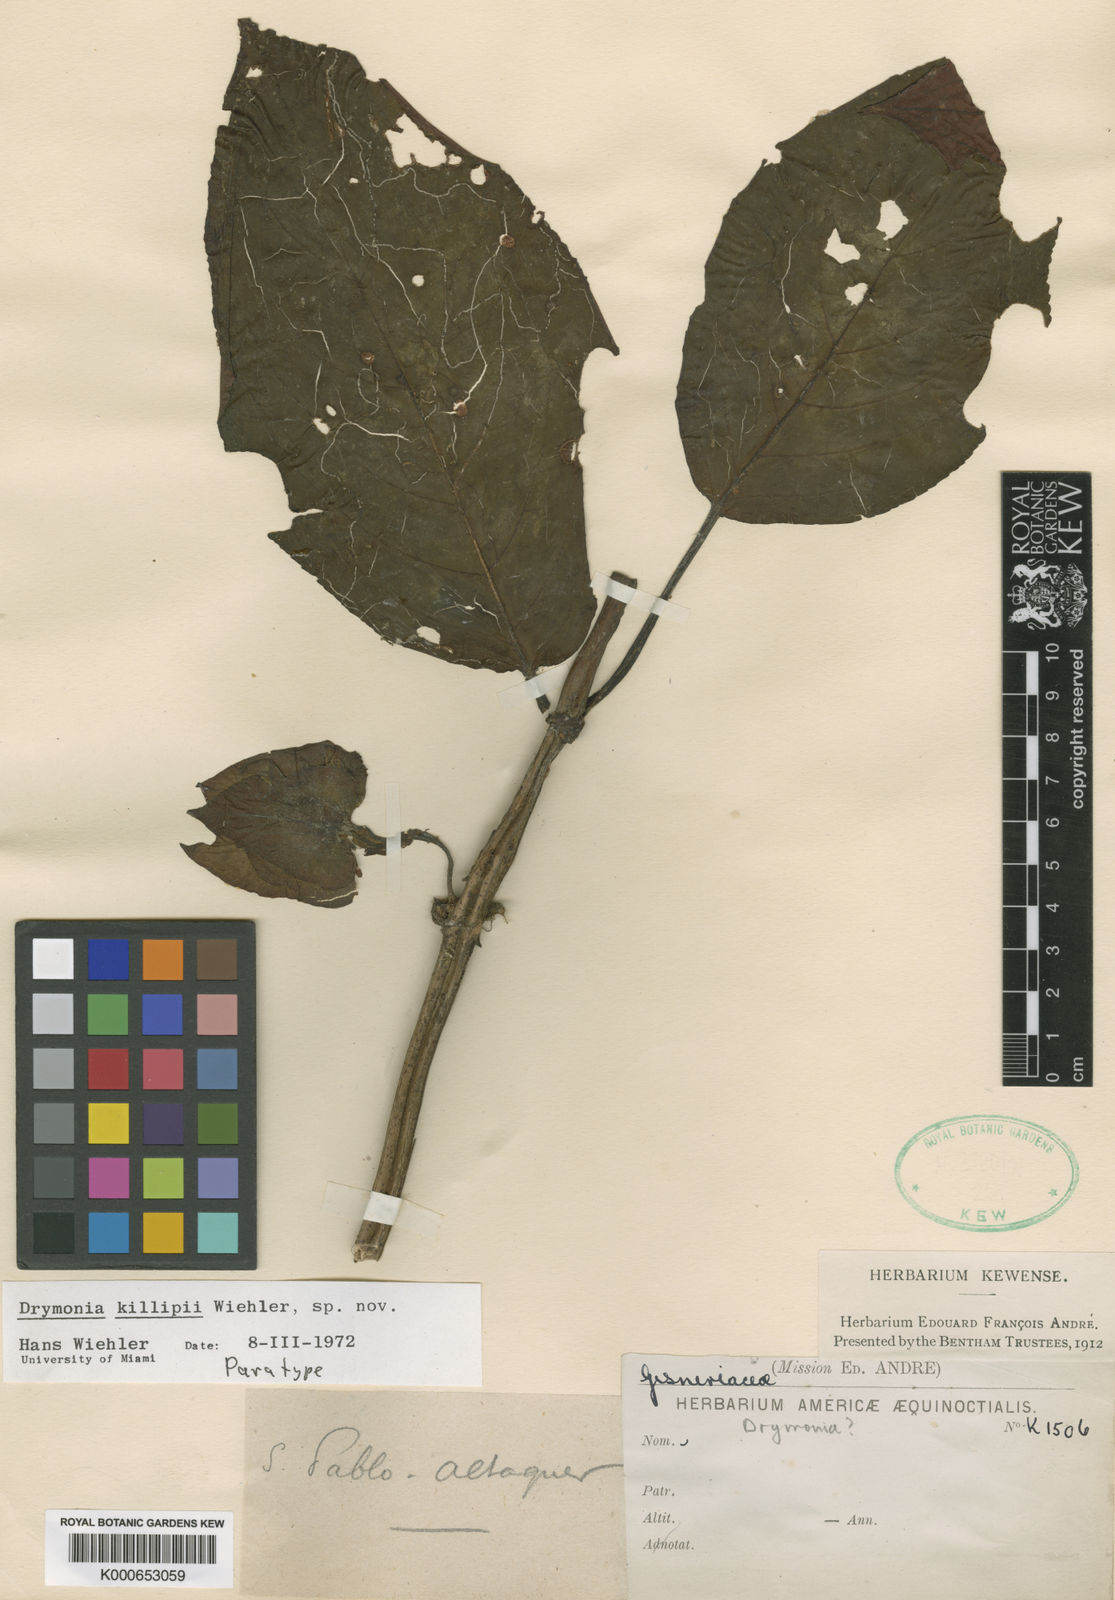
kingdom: Plantae
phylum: Tracheophyta
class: Magnoliopsida
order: Lamiales
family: Gesneriaceae
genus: Drymonia
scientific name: Drymonia killipii
